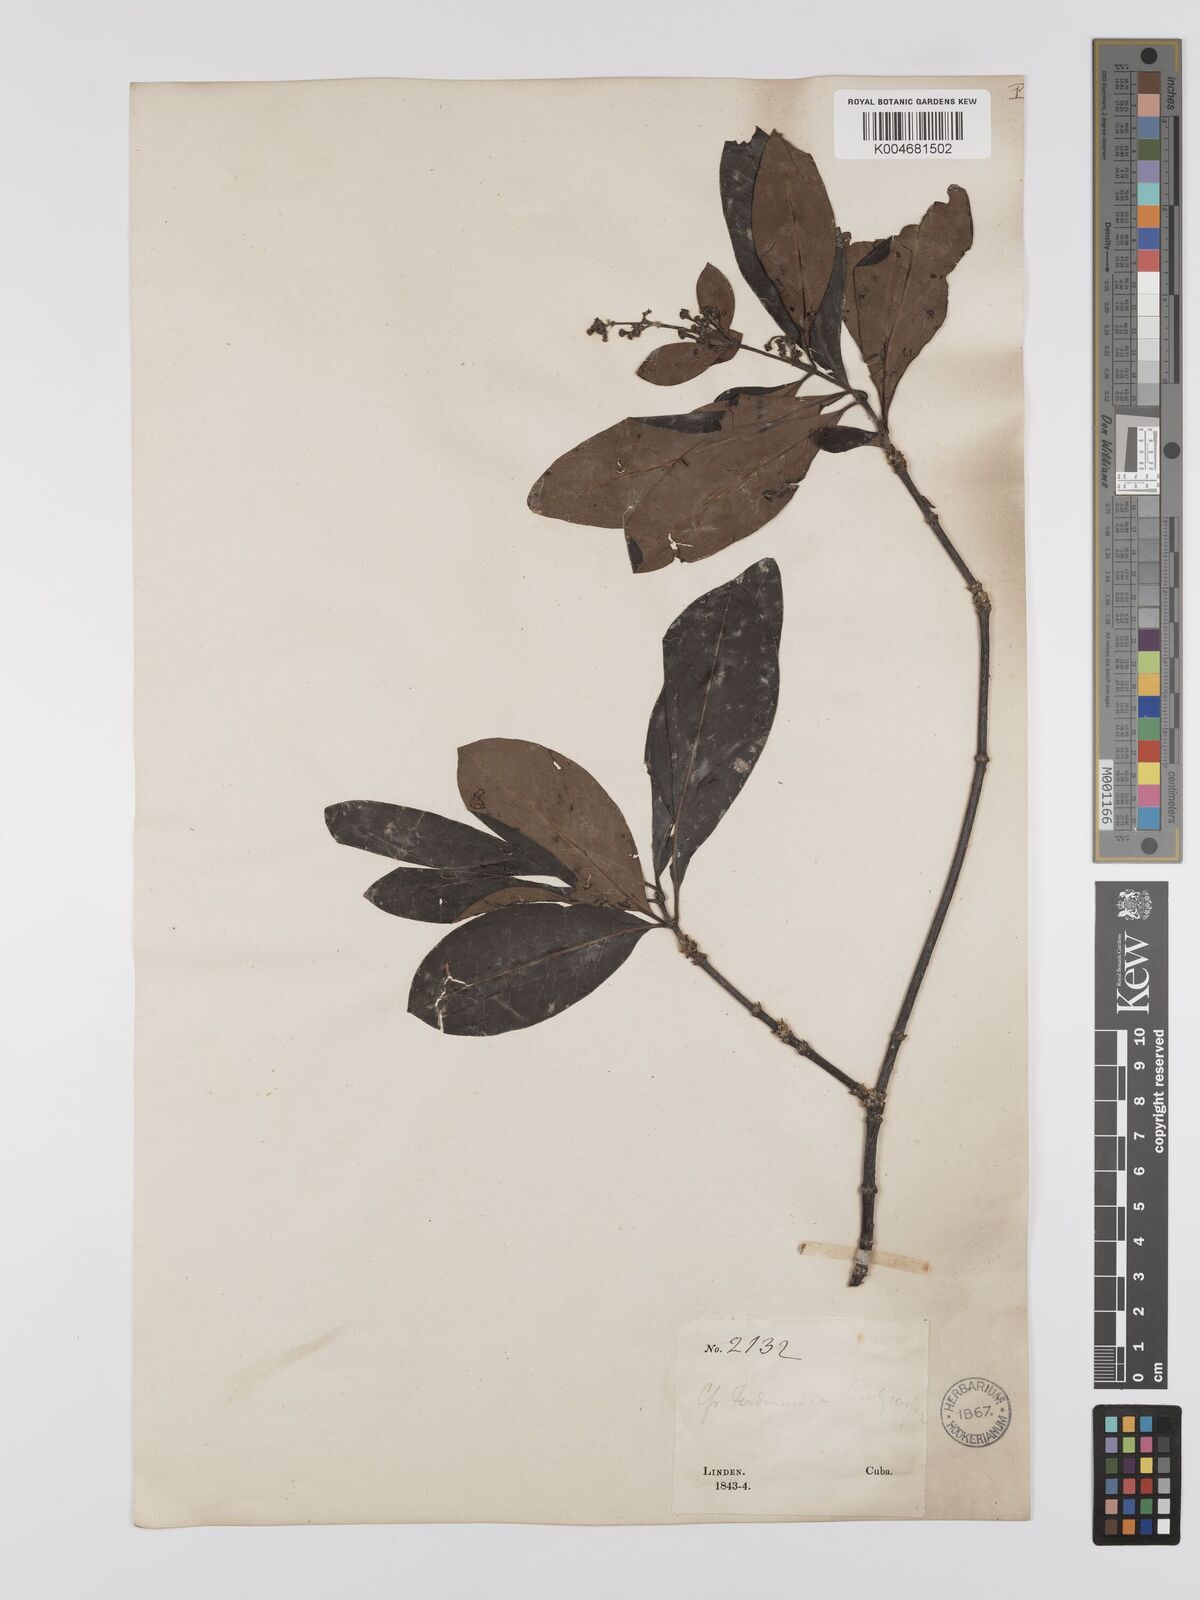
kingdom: Plantae
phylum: Tracheophyta
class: Magnoliopsida
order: Gentianales
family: Rubiaceae
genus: Suberanthus
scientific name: Suberanthus brachycarpus
